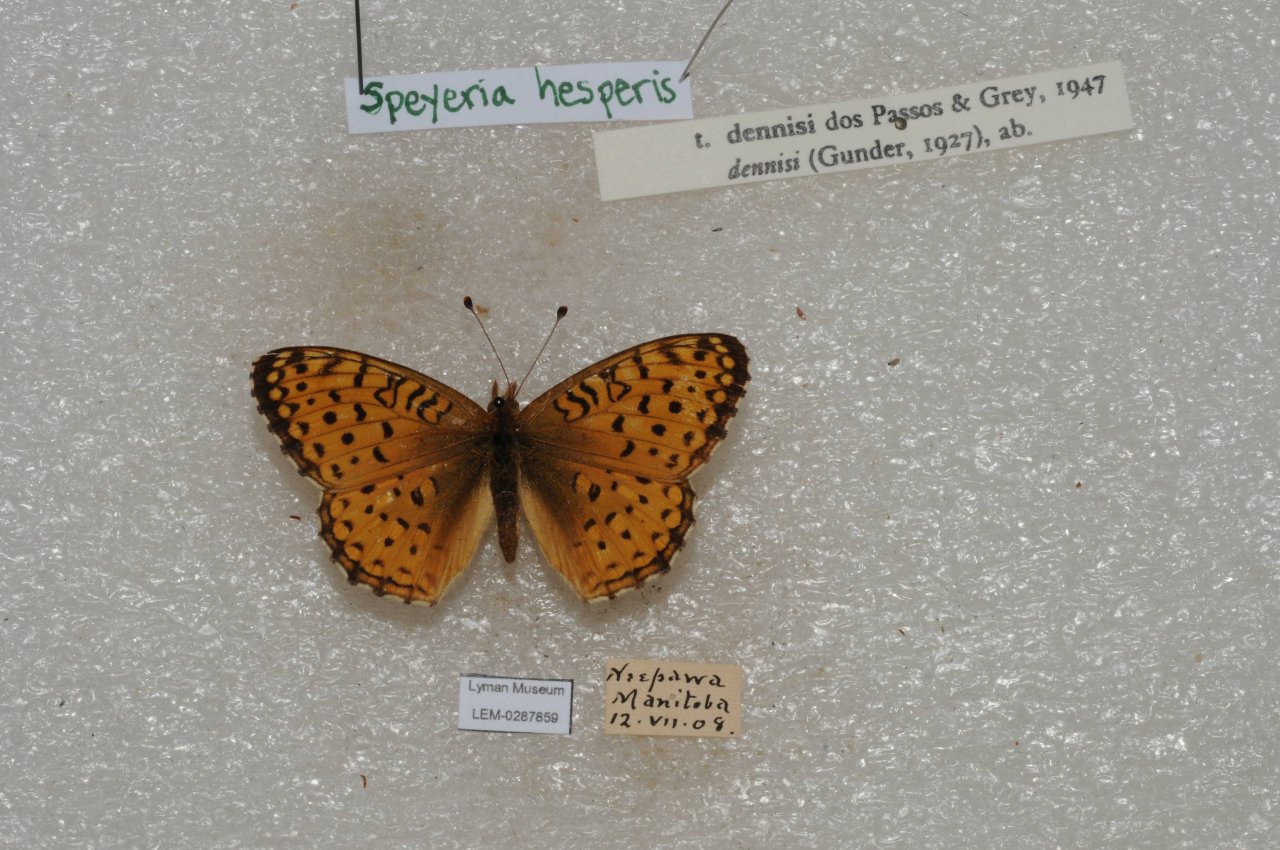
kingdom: Animalia
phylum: Arthropoda
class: Insecta
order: Lepidoptera
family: Nymphalidae
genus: Speyeria
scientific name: Speyeria atlantis
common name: Northwestern Fritillary
